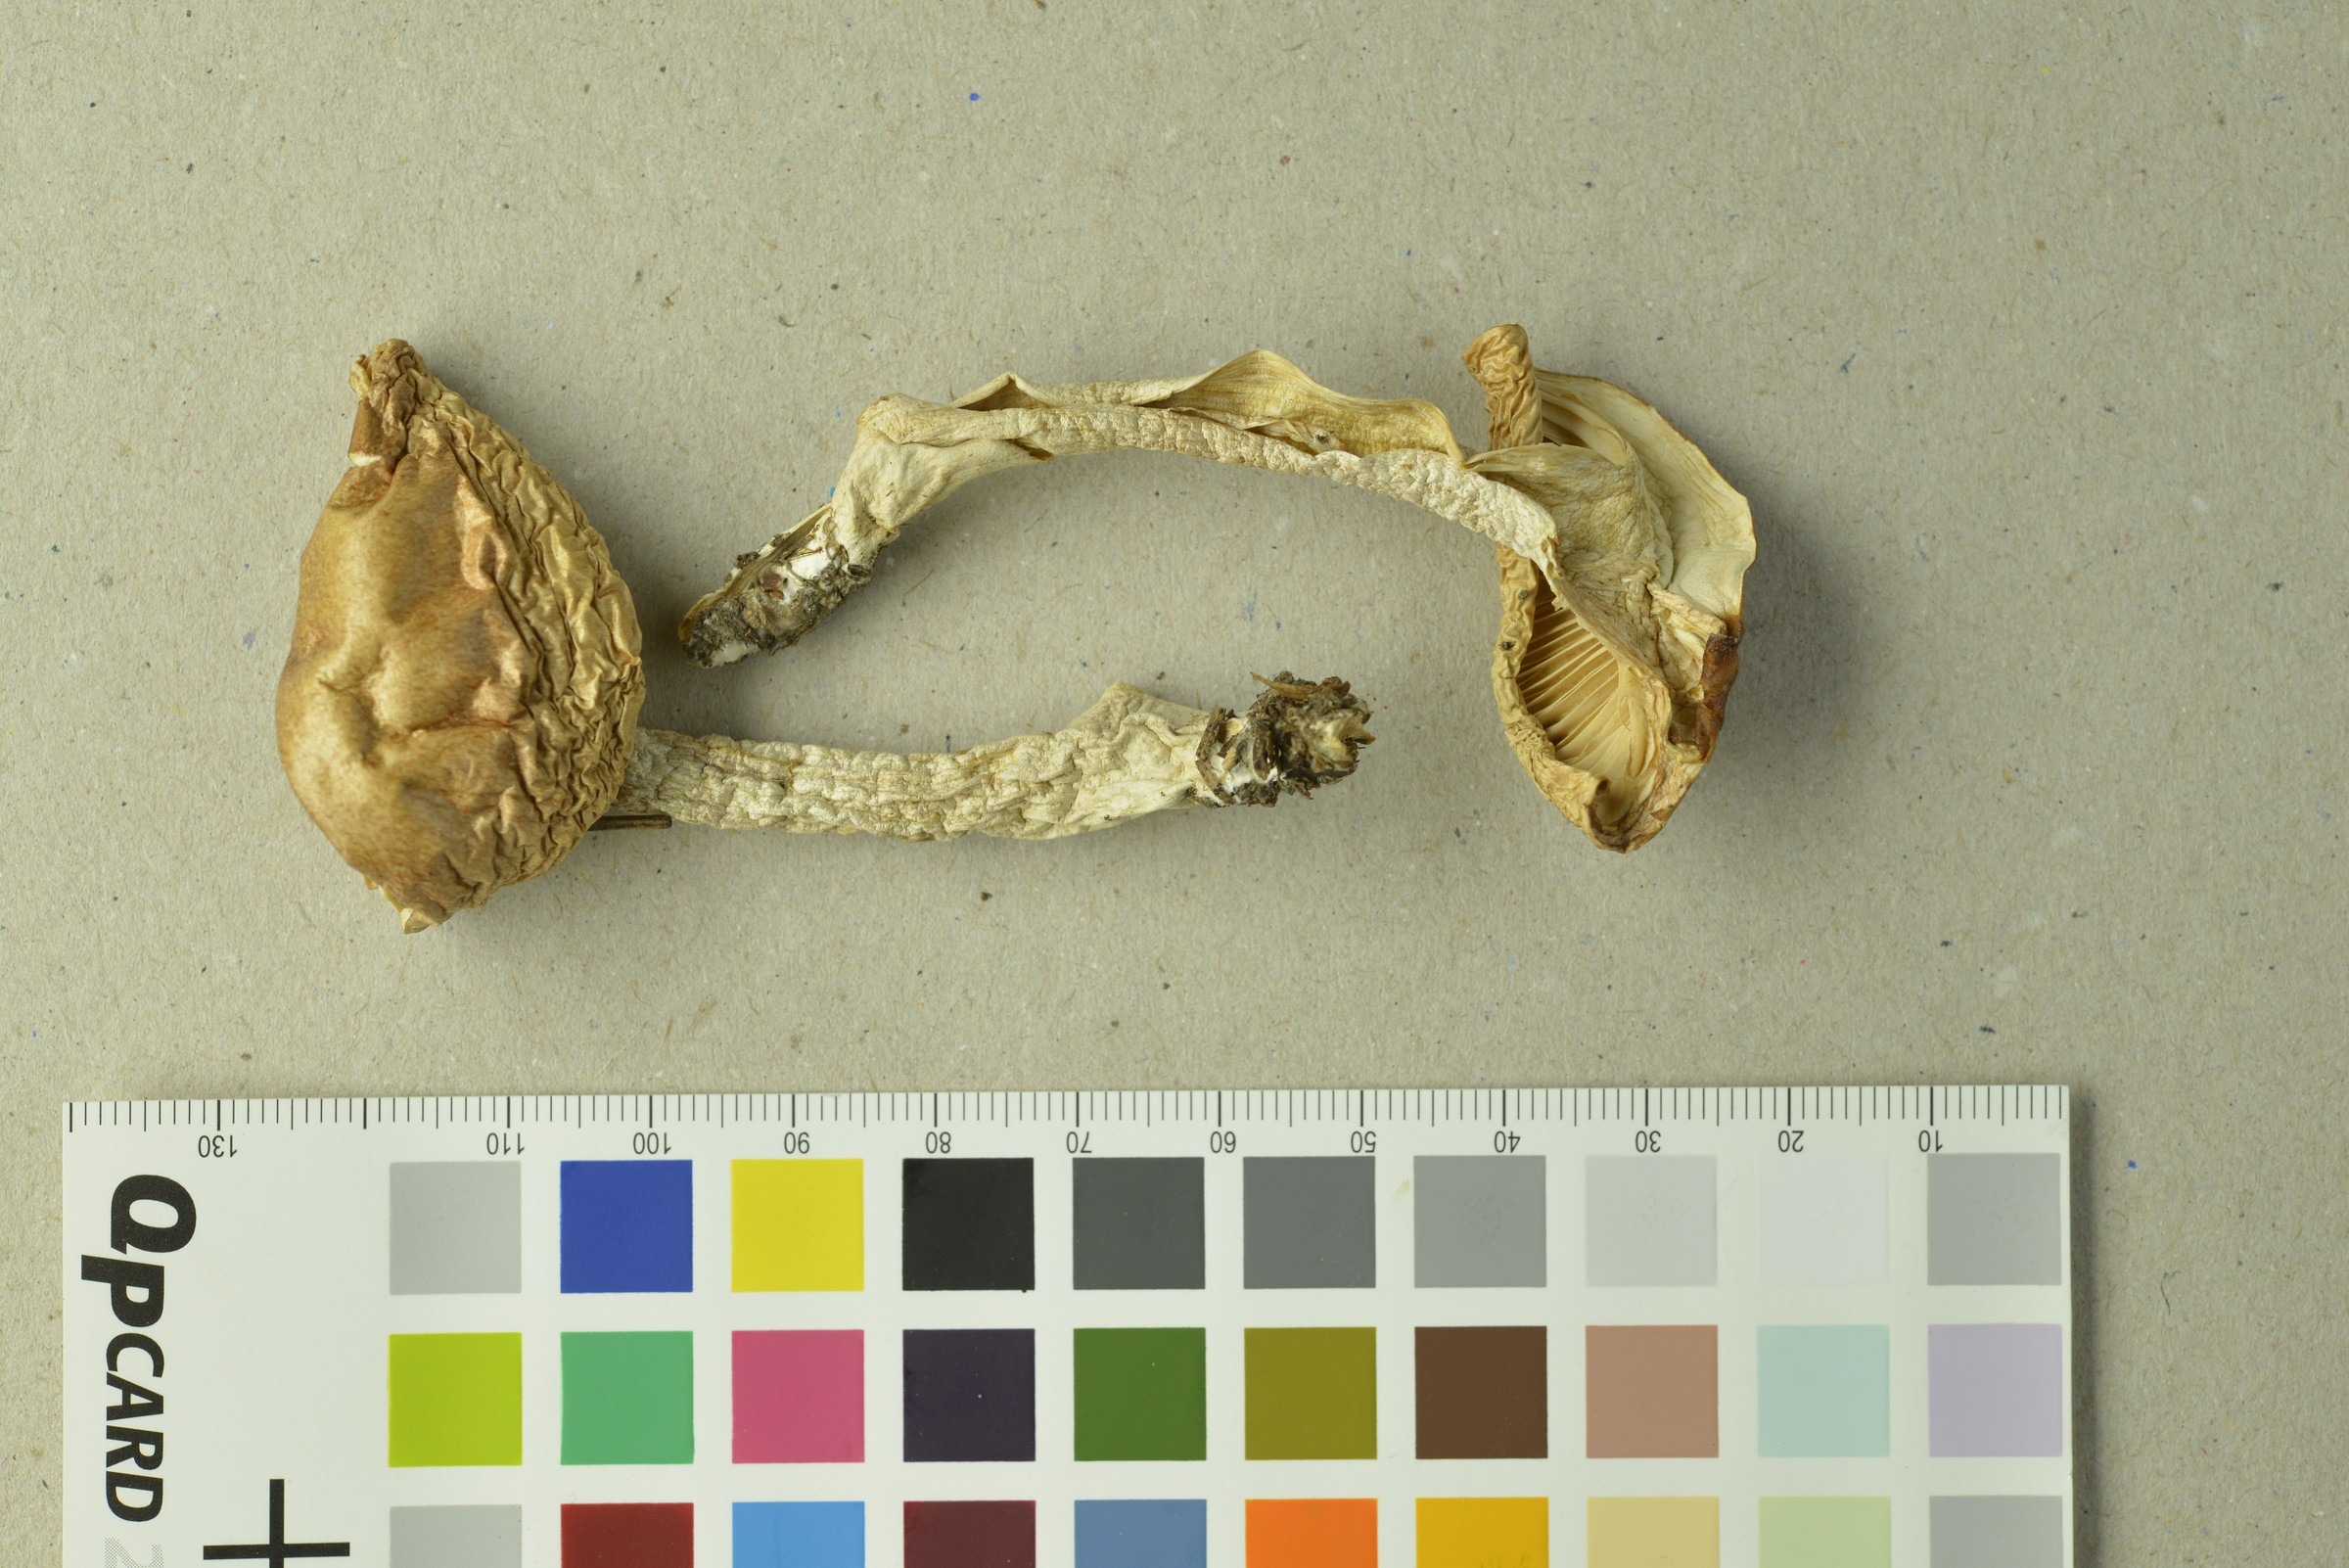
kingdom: Fungi
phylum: Basidiomycota
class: Agaricomycetes
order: Agaricales
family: Hygrophoraceae
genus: Hygrophorus
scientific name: Hygrophorus pudorinus
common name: Rosy woodwax
